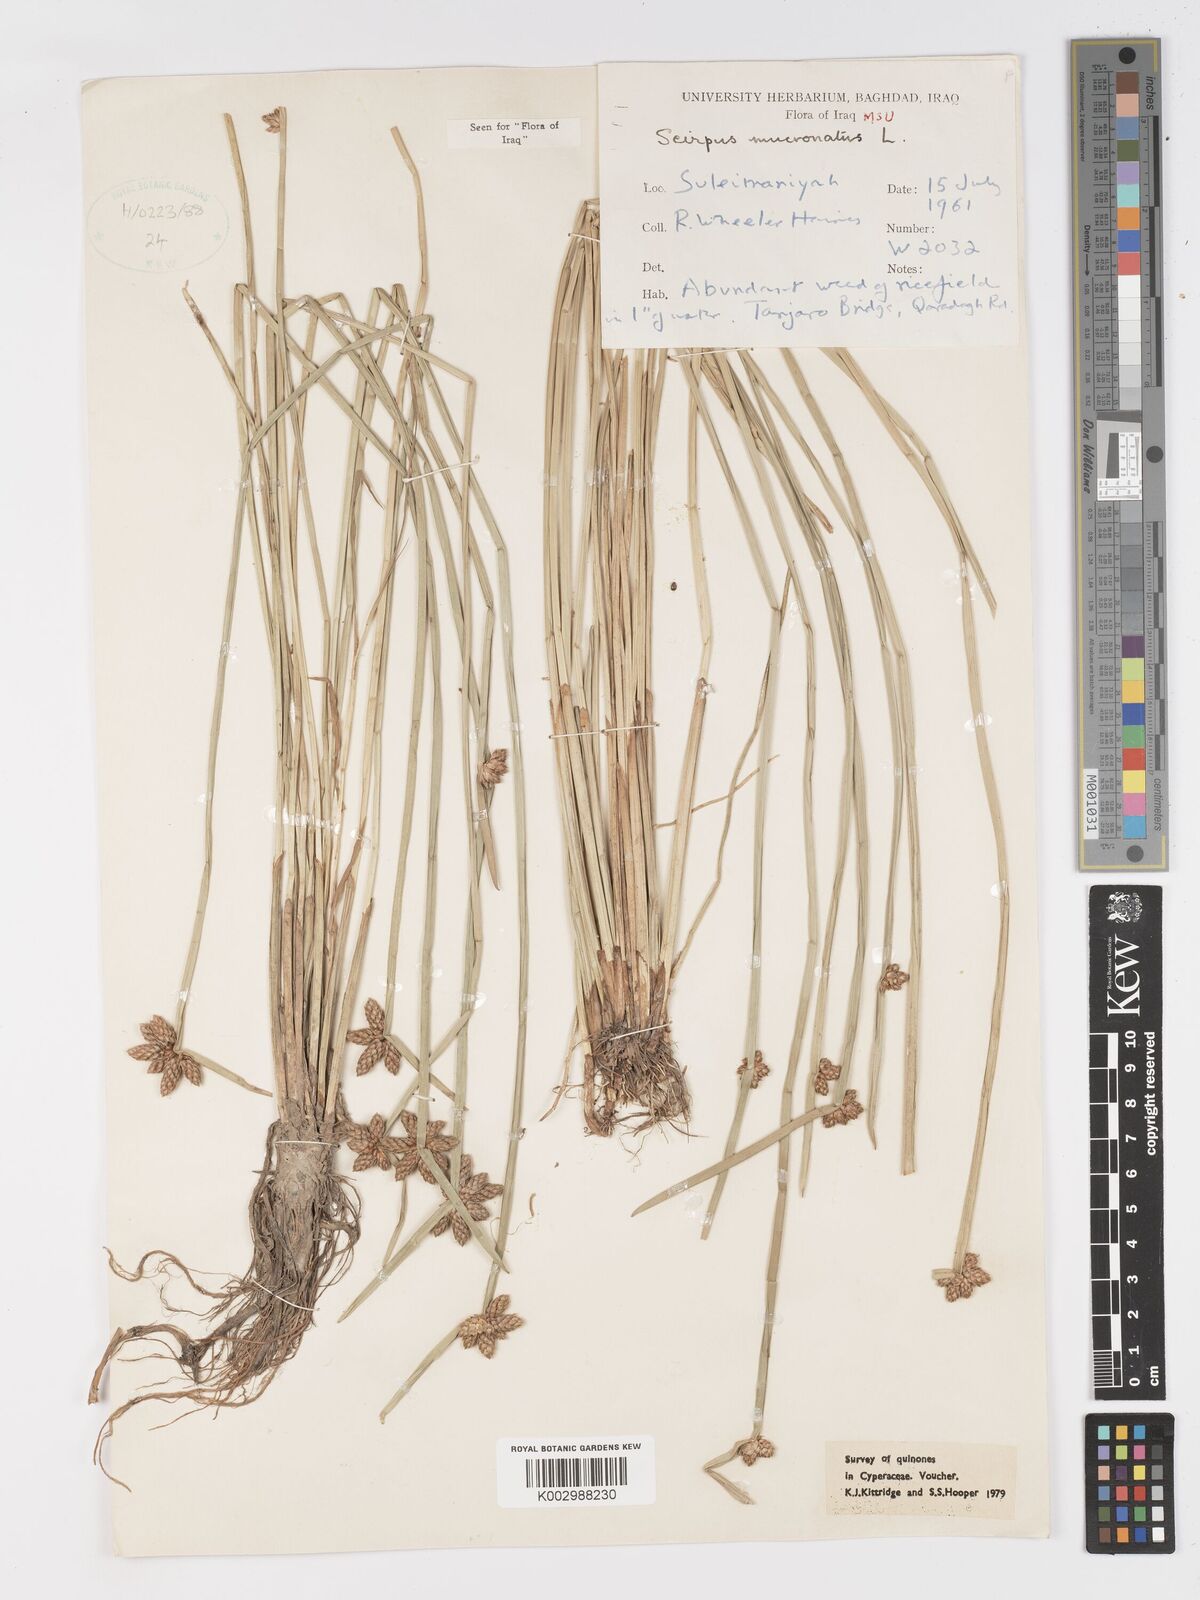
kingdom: Plantae
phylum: Tracheophyta
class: Liliopsida
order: Poales
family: Cyperaceae
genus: Schoenoplectiella
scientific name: Schoenoplectiella mucronata
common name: Bog bulrush
